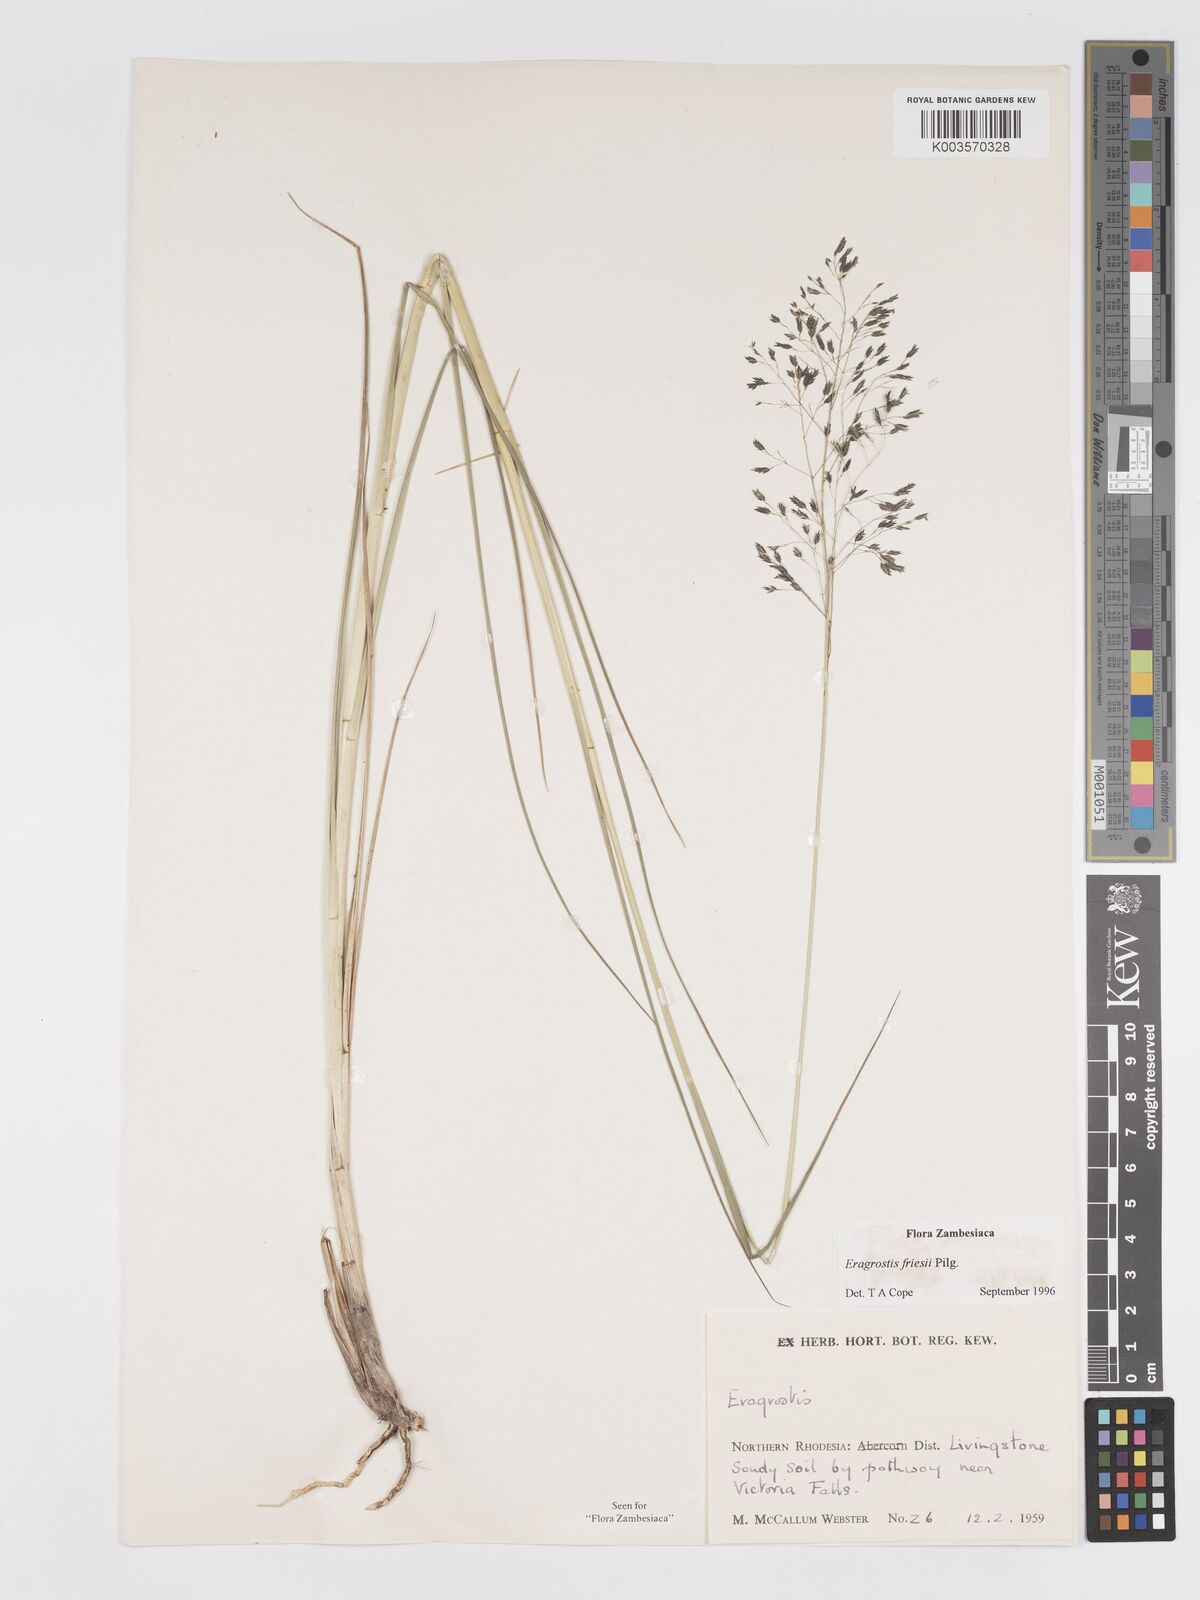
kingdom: Plantae
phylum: Tracheophyta
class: Liliopsida
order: Poales
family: Poaceae
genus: Eragrostis
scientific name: Eragrostis friesii
